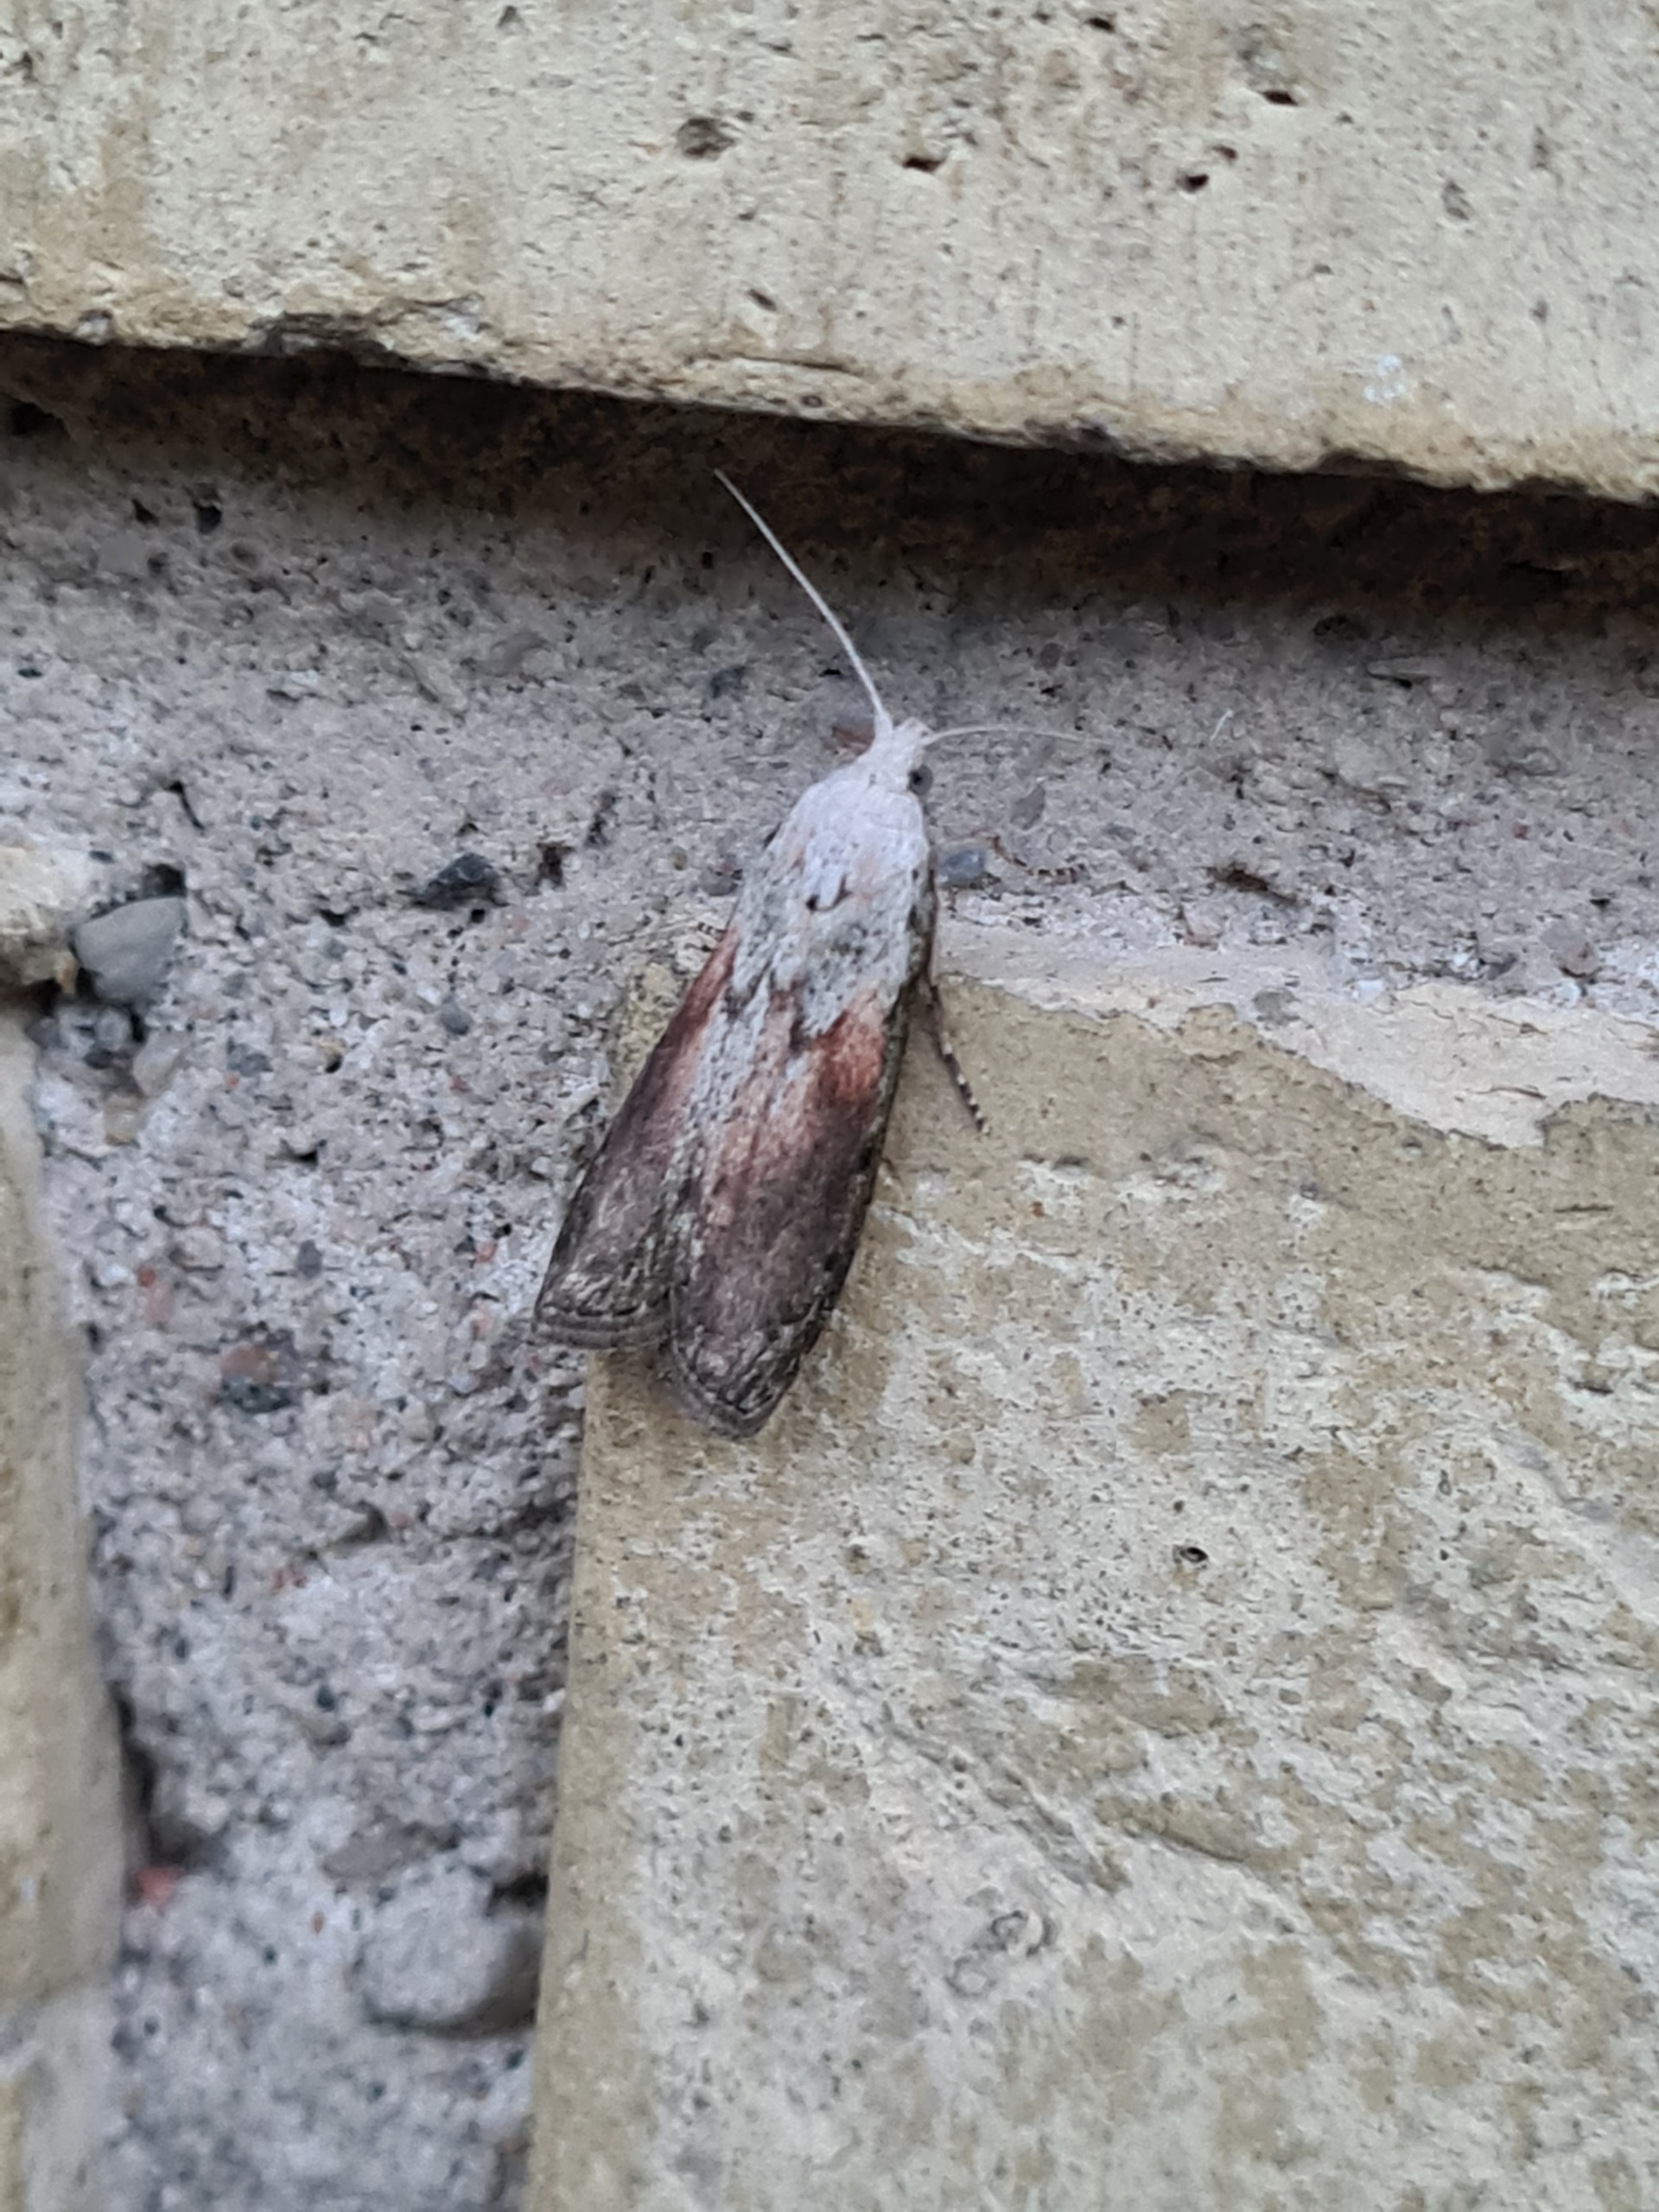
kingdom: Animalia
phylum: Arthropoda
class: Insecta
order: Lepidoptera
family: Pyralidae
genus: Aphomia
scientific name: Aphomia sociella
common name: Humlevoksmøl
